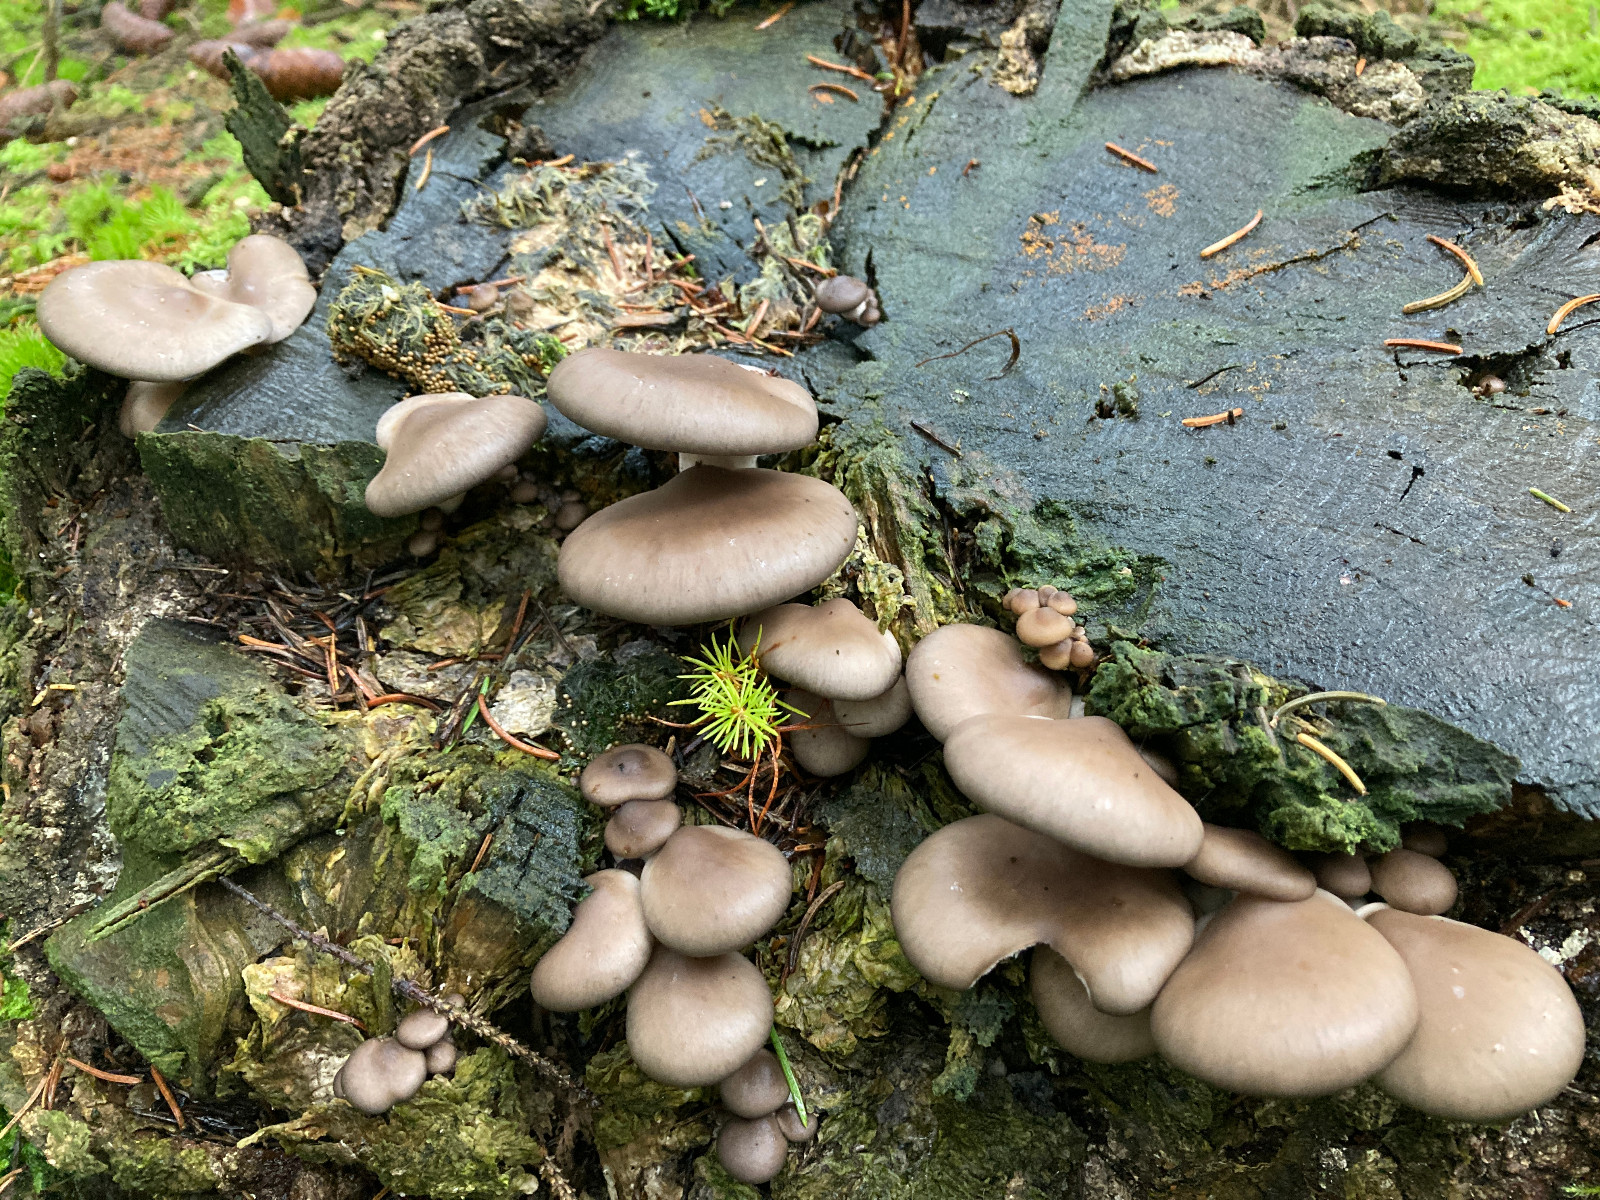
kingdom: Fungi
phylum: Basidiomycota
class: Agaricomycetes
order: Agaricales
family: Pleurotaceae
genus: Pleurotus
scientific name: Pleurotus ostreatus
